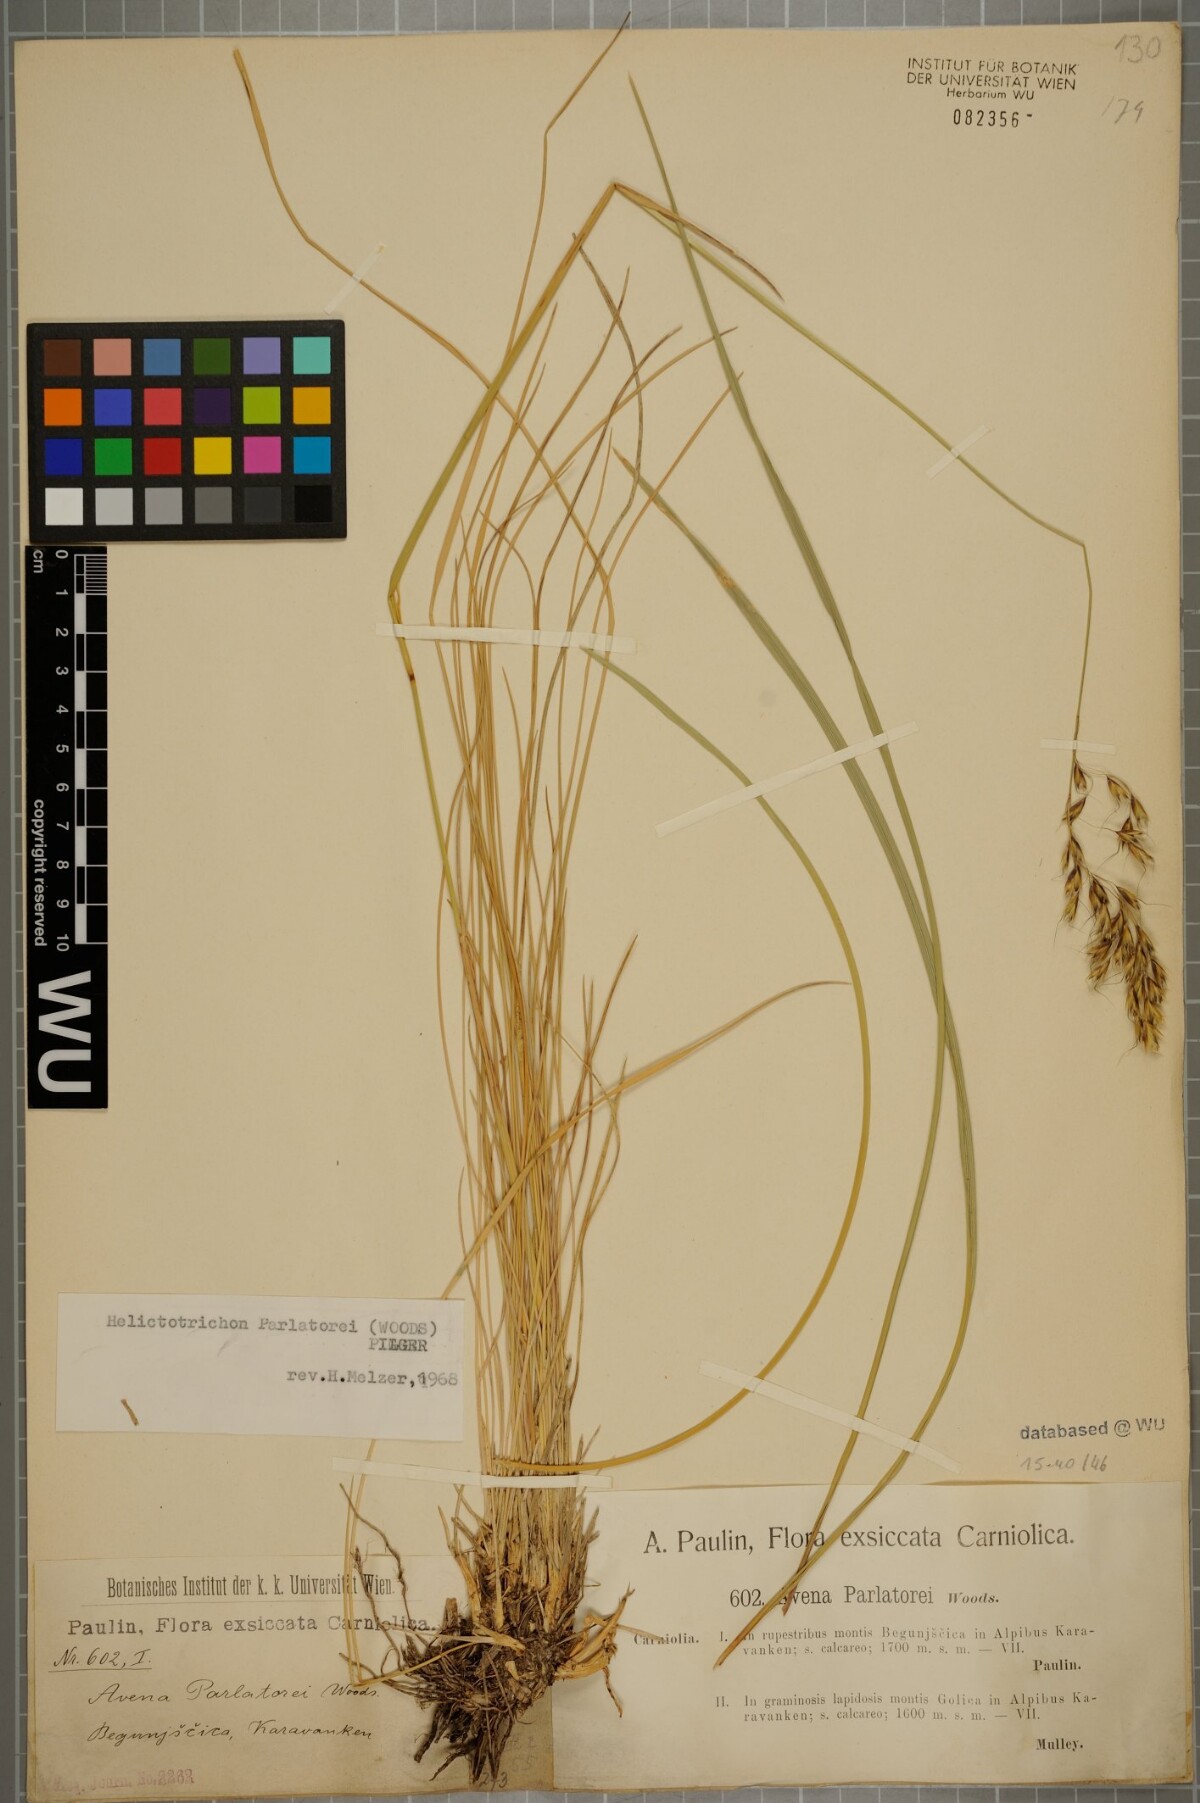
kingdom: Plantae
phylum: Tracheophyta
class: Liliopsida
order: Poales
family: Poaceae
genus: Helictotrichon
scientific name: Helictotrichon parlatorei
